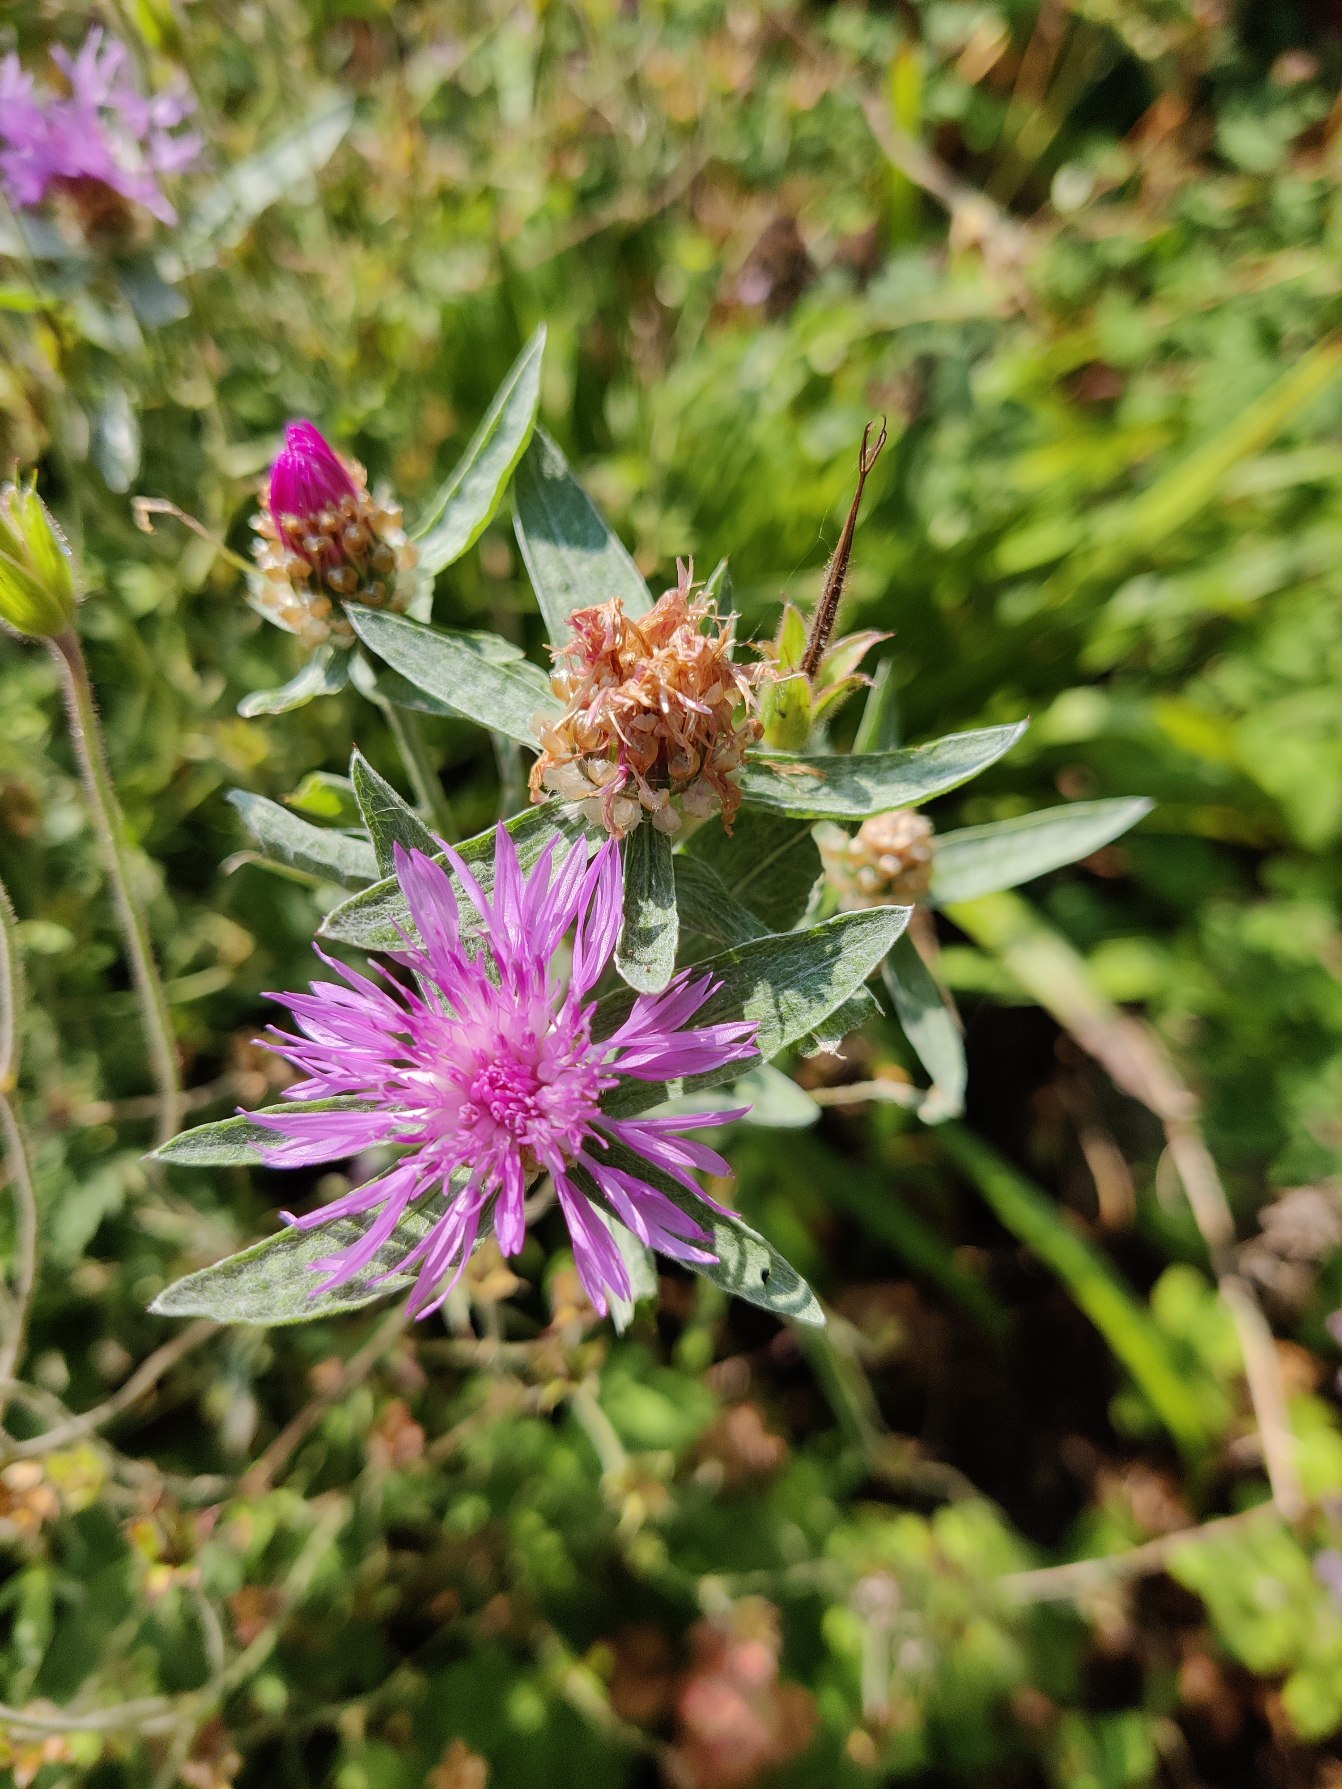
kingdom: Plantae
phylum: Tracheophyta
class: Magnoliopsida
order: Asterales
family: Asteraceae
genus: Centaurea
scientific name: Centaurea jacea
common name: Almindelig knopurt
